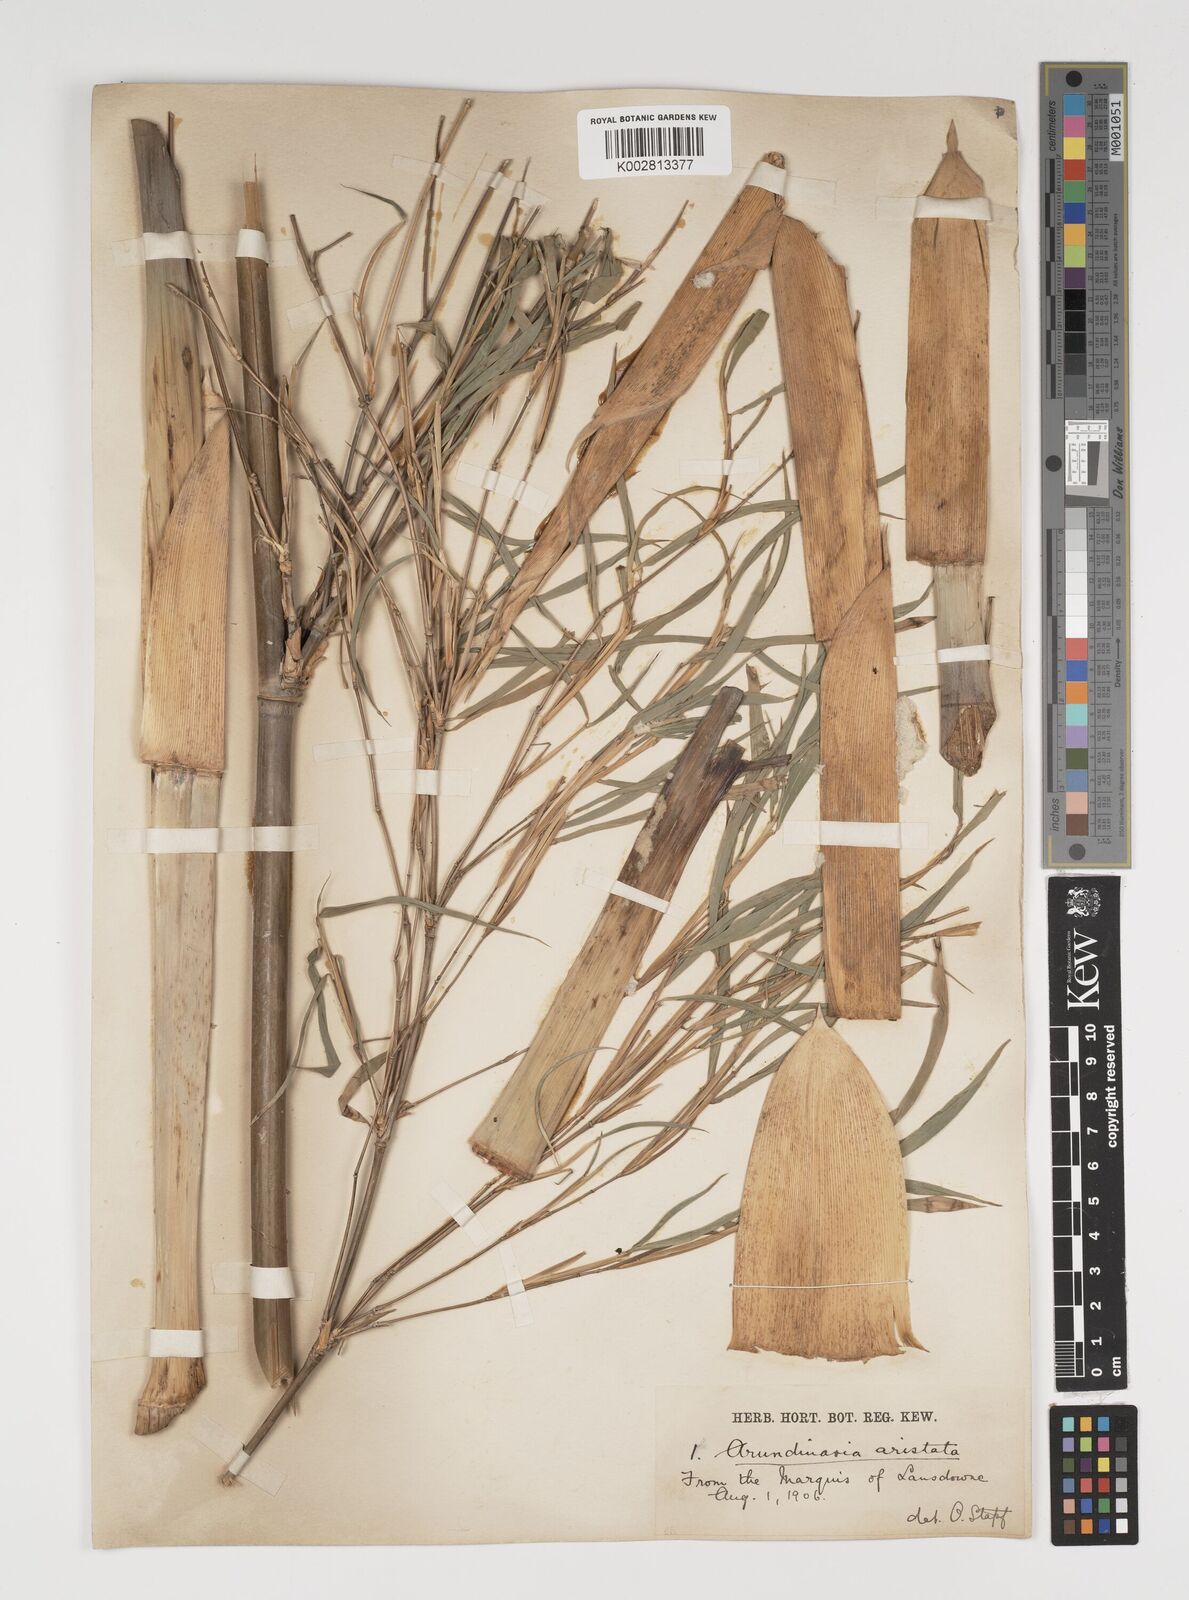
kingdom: Plantae
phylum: Tracheophyta
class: Liliopsida
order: Poales
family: Poaceae
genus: Thamnocalamus
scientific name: Thamnocalamus spathiflorus
